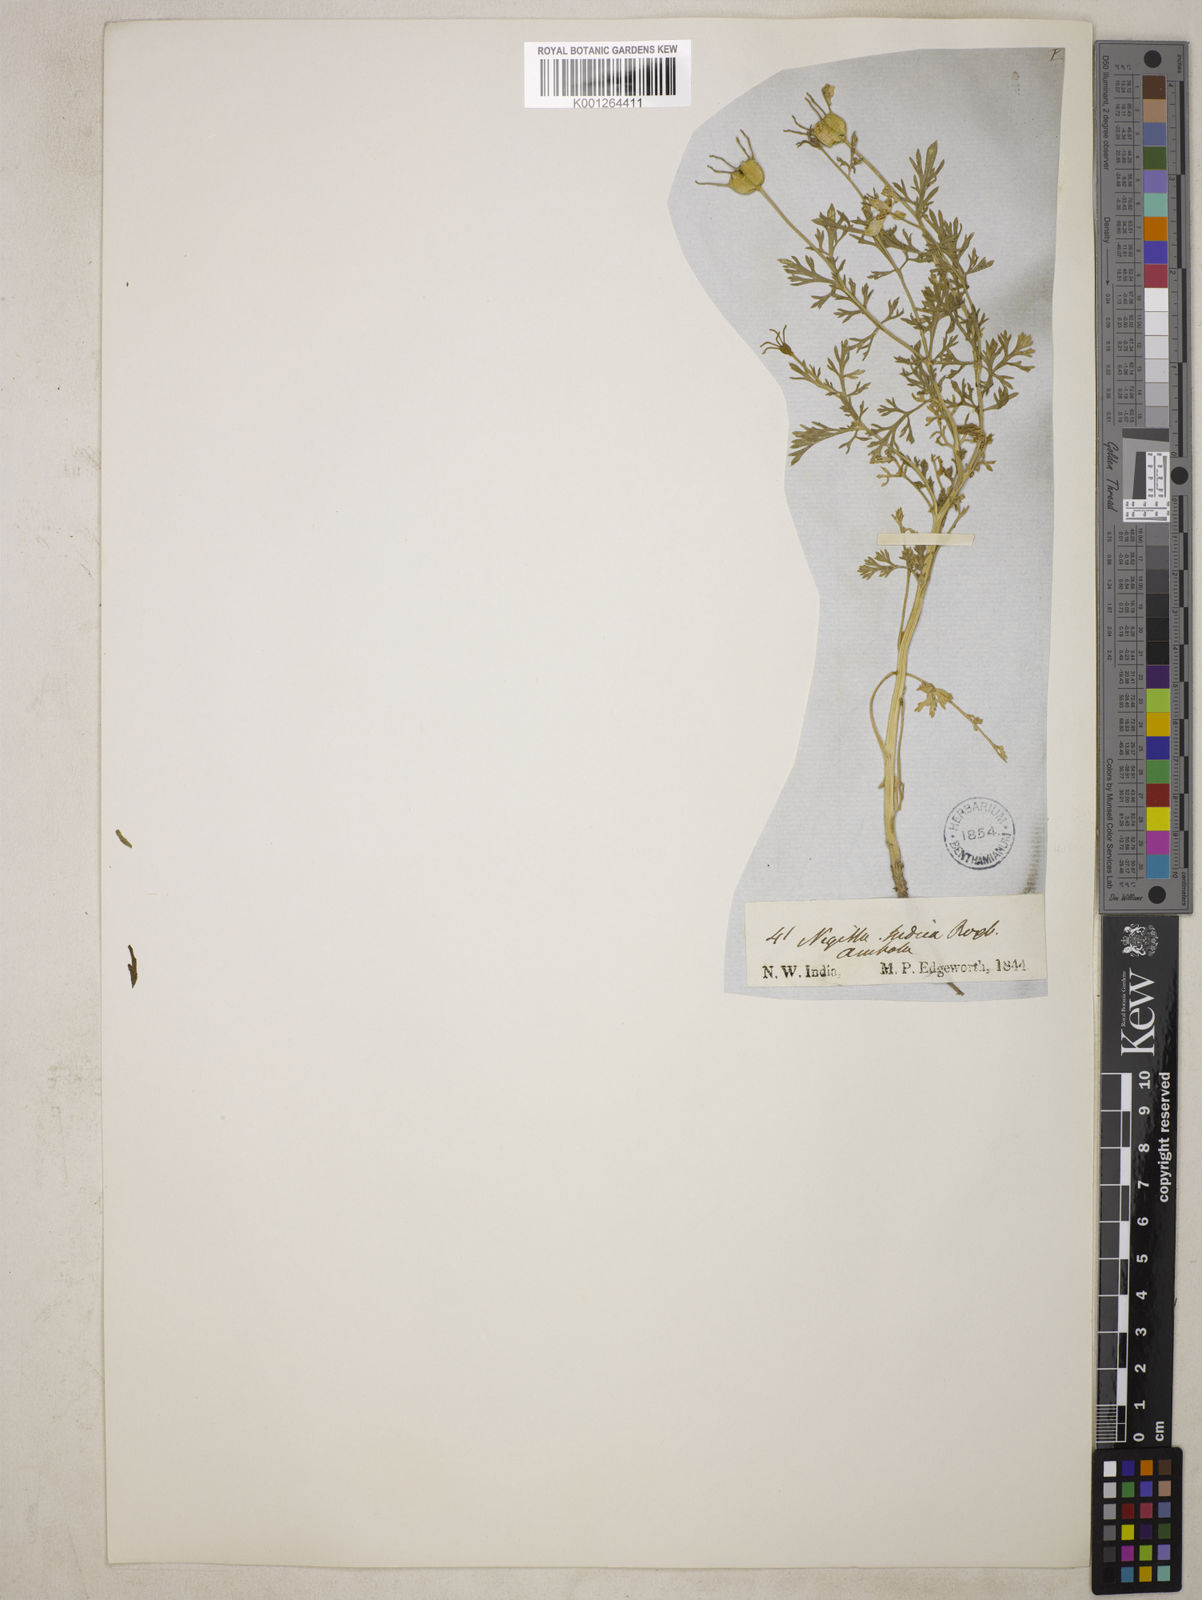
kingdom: Plantae
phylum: Tracheophyta
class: Magnoliopsida
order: Ranunculales
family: Ranunculaceae
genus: Nigella
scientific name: Nigella sativa
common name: Black-cumin
